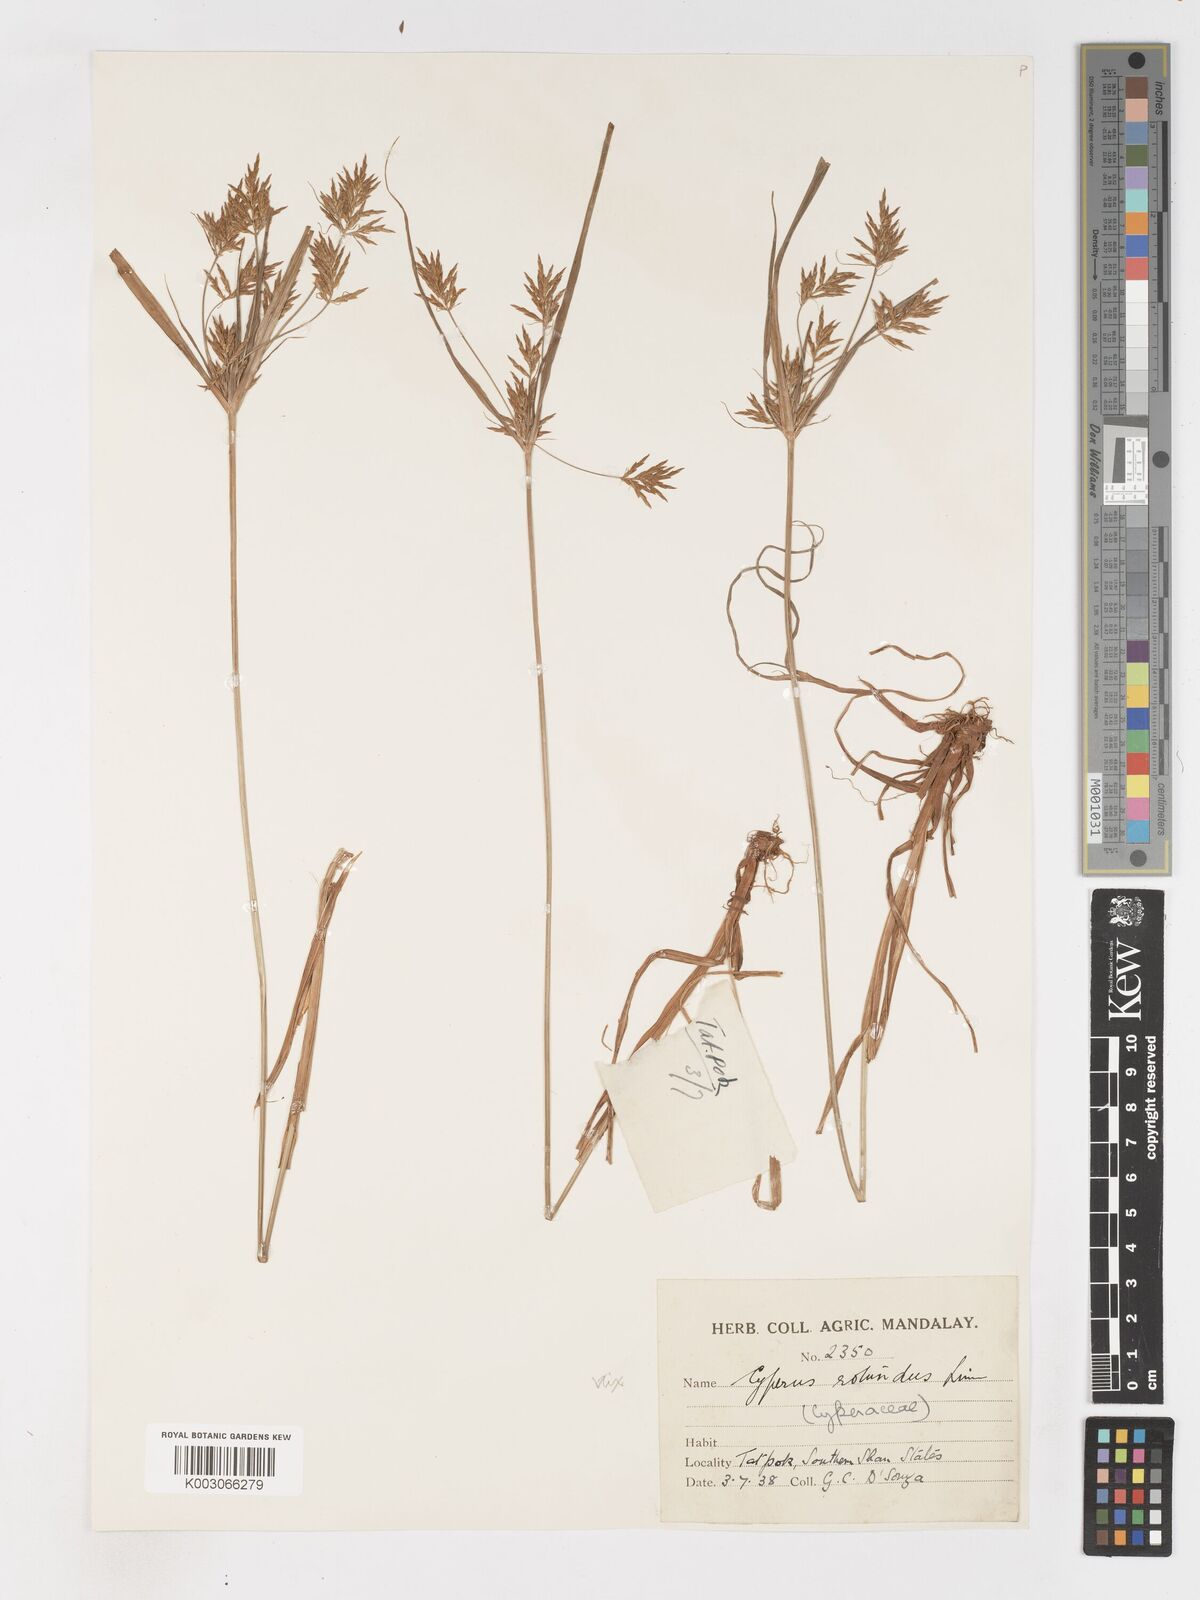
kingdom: Plantae
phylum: Tracheophyta
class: Liliopsida
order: Poales
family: Cyperaceae
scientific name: Cyperaceae
